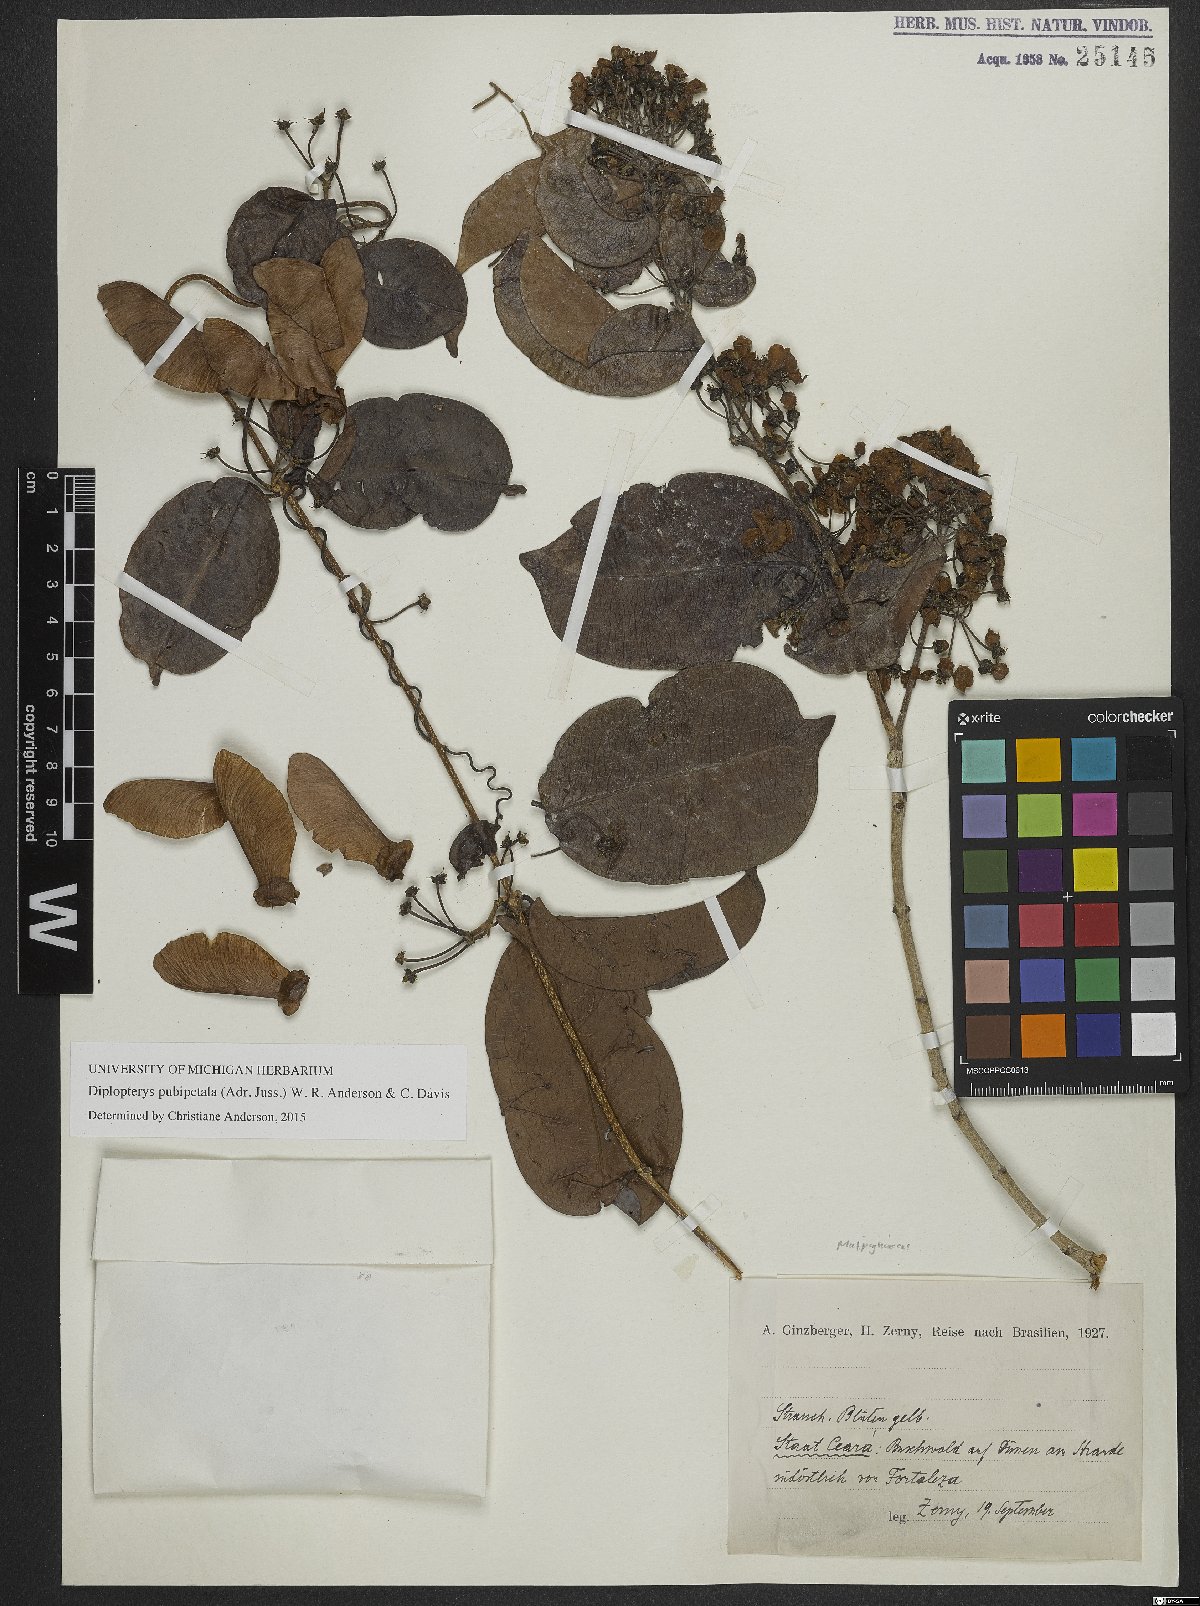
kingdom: Plantae
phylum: Tracheophyta
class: Magnoliopsida
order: Malpighiales
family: Malpighiaceae
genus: Diplopterys
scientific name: Diplopterys pubipetala
